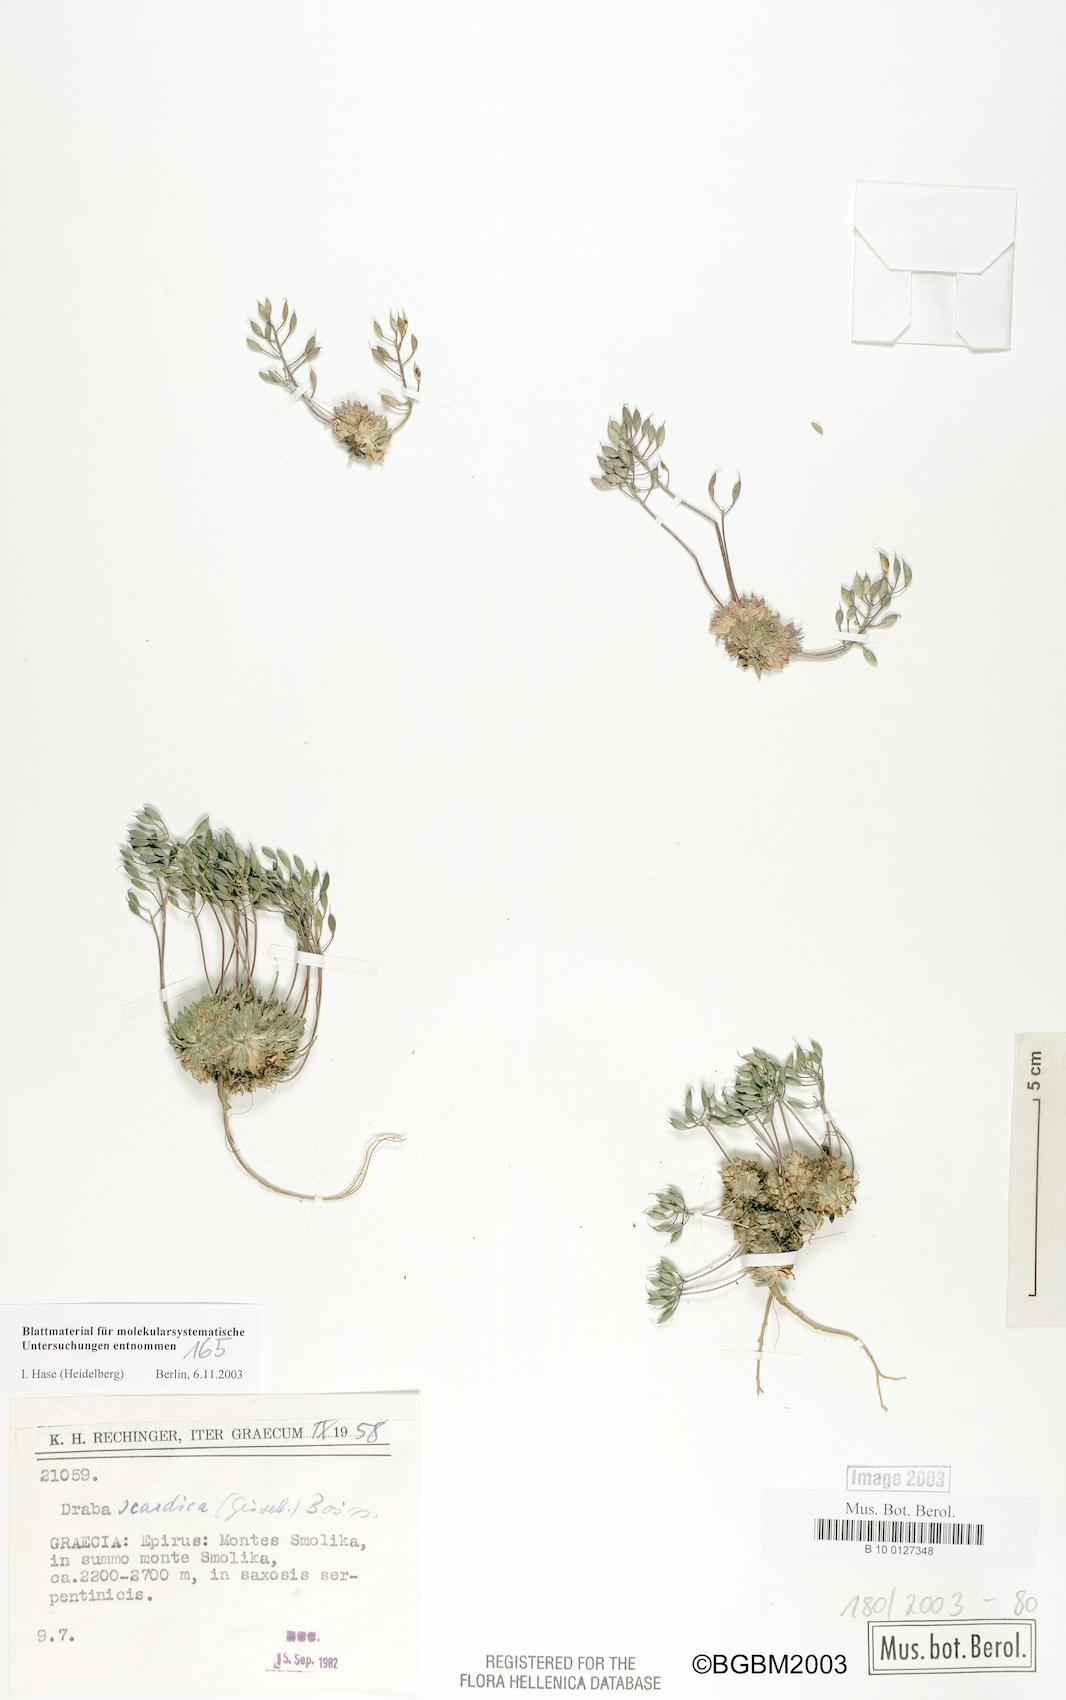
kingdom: Plantae
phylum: Tracheophyta
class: Magnoliopsida
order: Brassicales
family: Brassicaceae
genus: Draba
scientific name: Draba lasiocarpa
